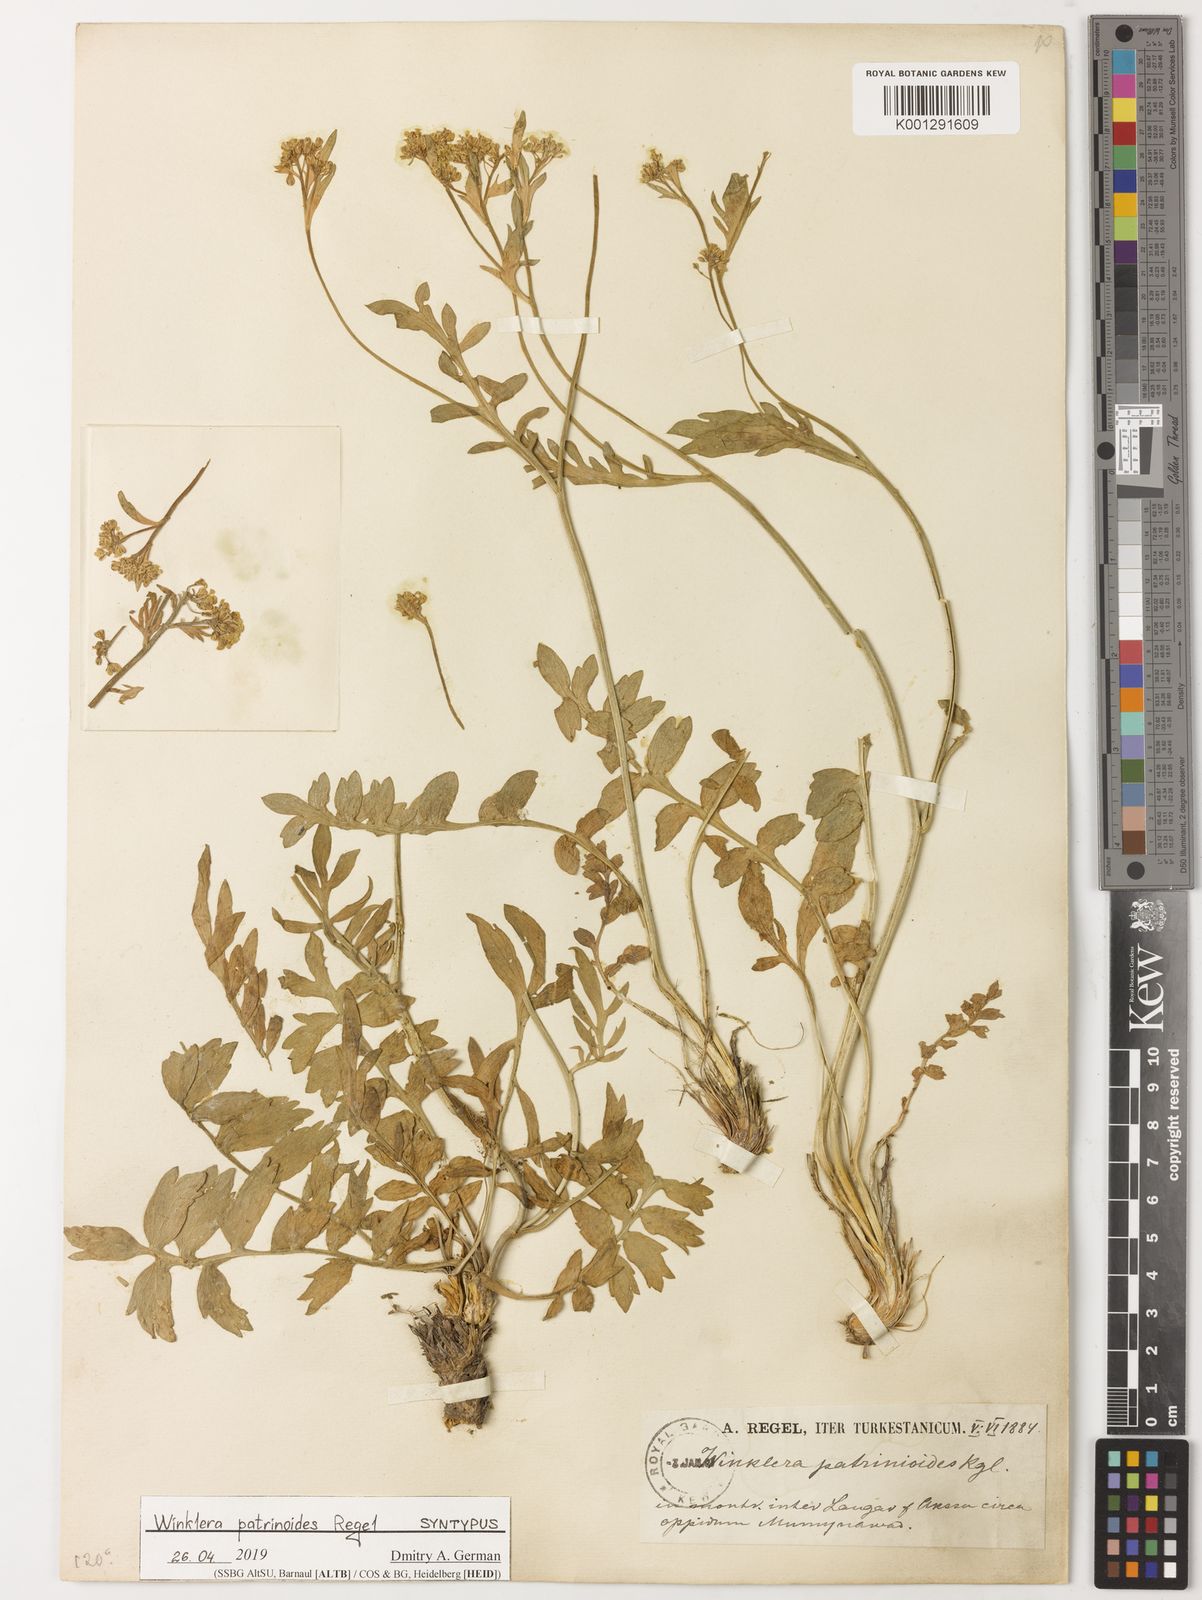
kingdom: Plantae
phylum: Tracheophyta
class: Magnoliopsida
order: Brassicales
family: Brassicaceae
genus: Lepidium
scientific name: Lepidium
